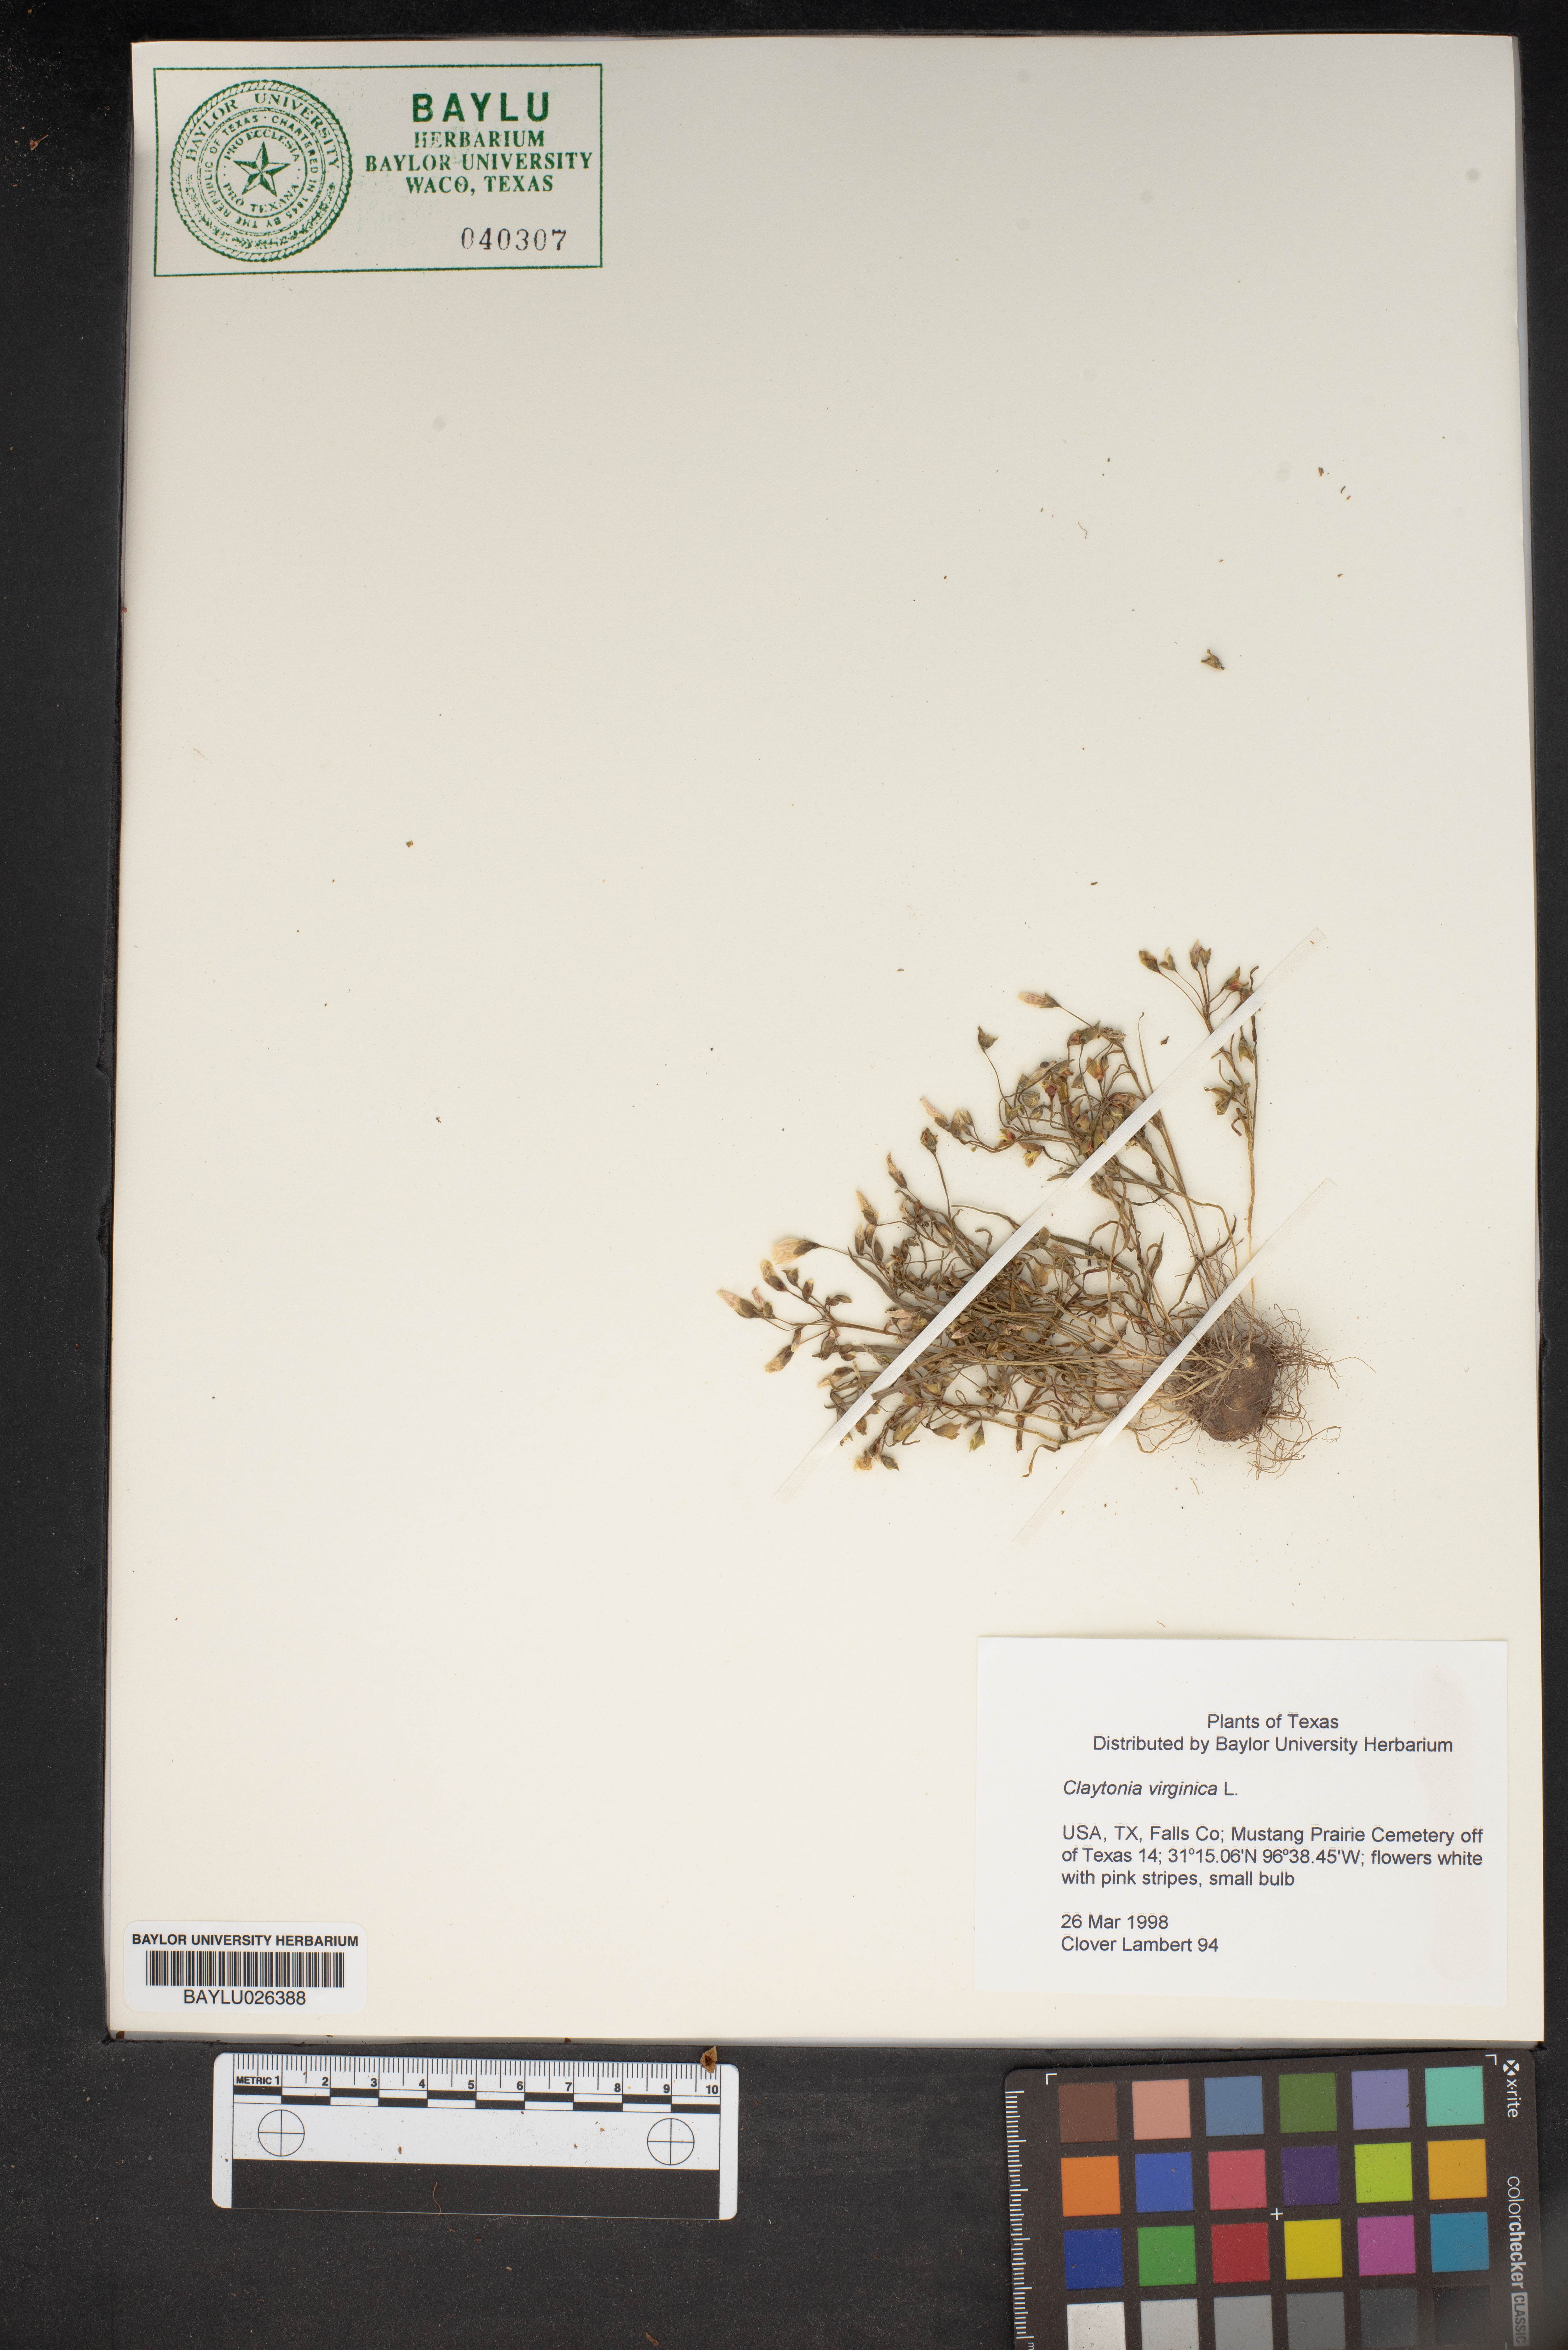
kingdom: Plantae
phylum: Tracheophyta
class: Magnoliopsida
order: Caryophyllales
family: Montiaceae
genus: Claytonia
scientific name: Claytonia virginica
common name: Virginia springbeauty
